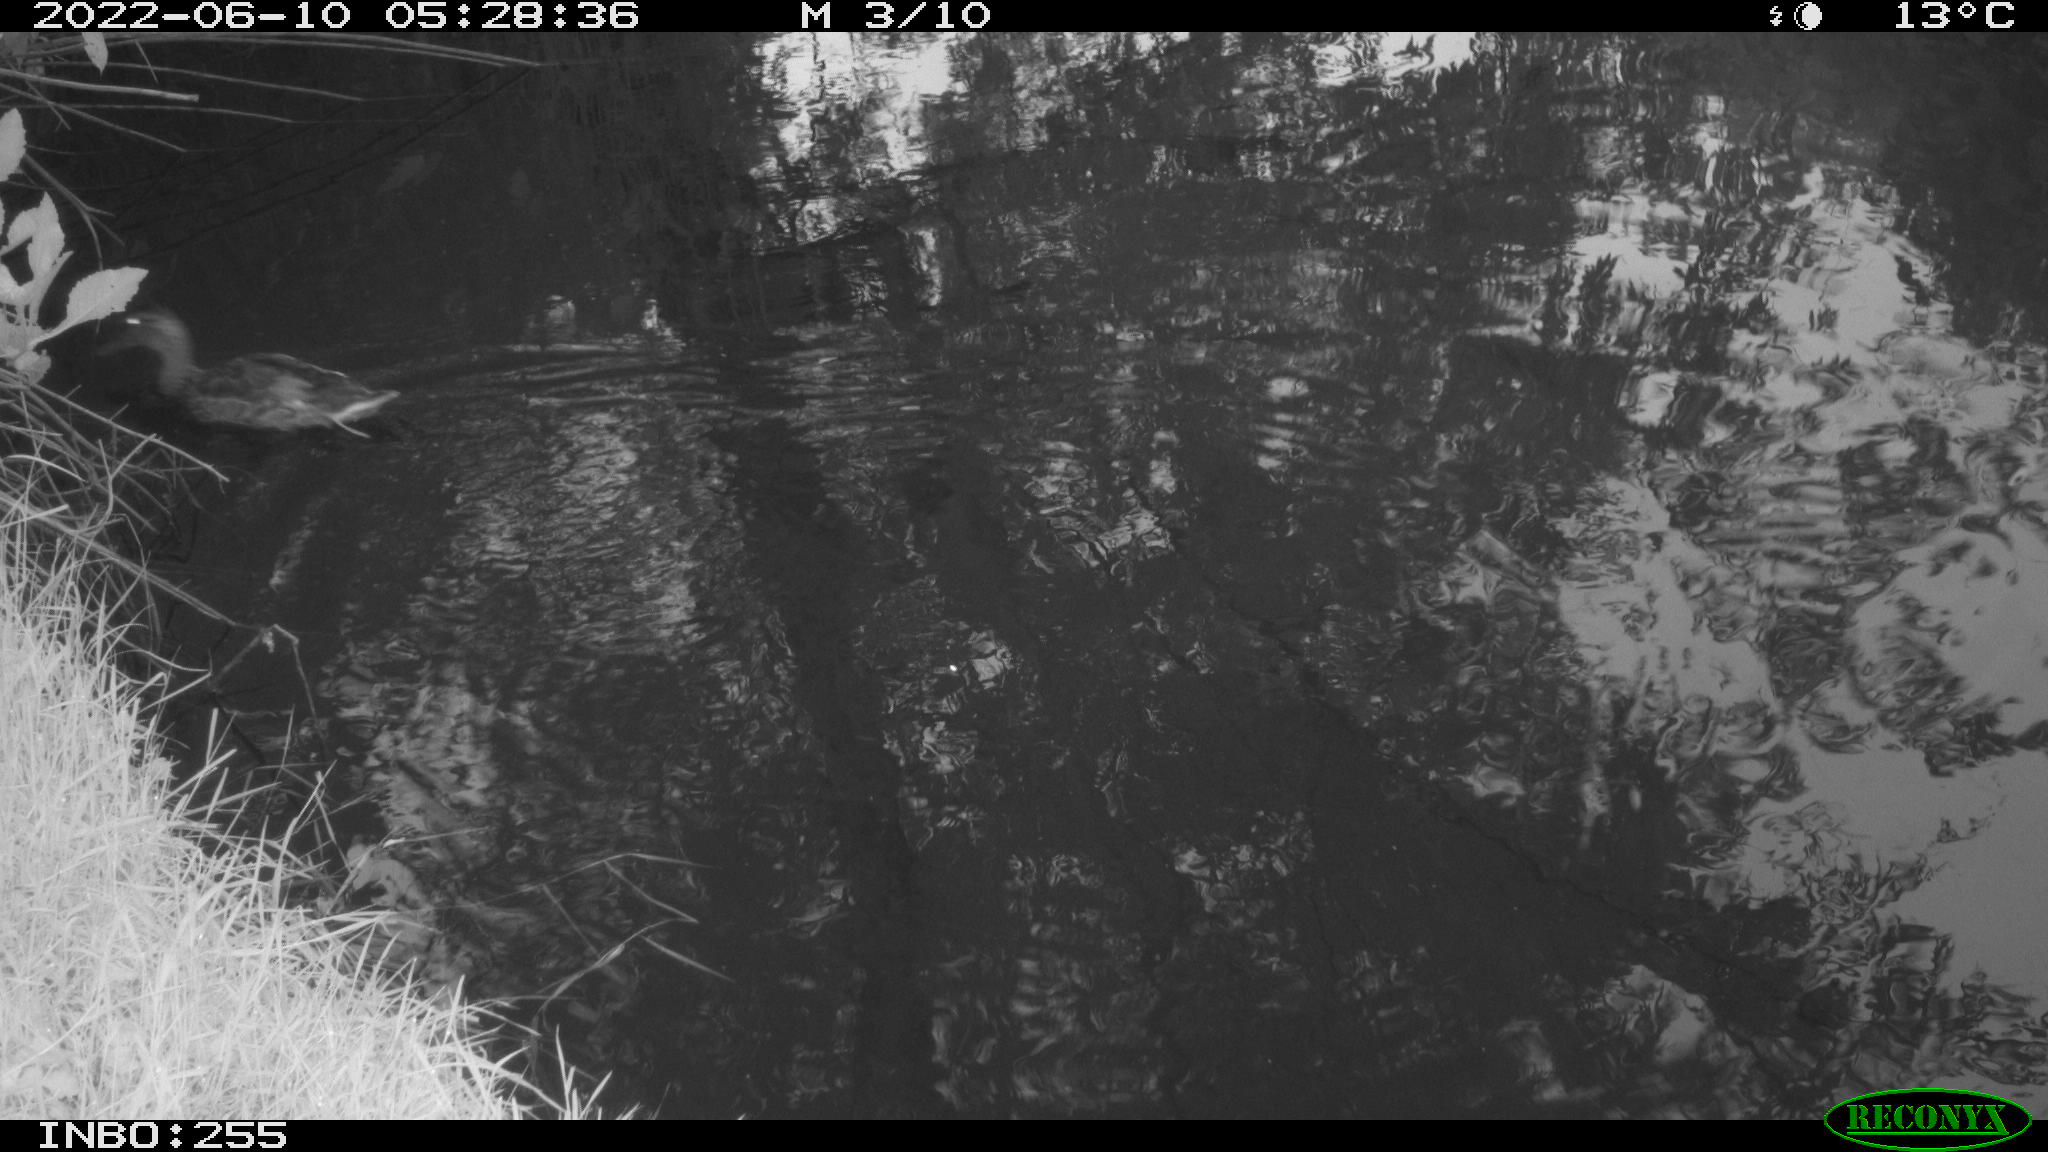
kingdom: Animalia
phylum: Chordata
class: Aves
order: Anseriformes
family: Anatidae
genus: Anas
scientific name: Anas platyrhynchos
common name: Mallard
